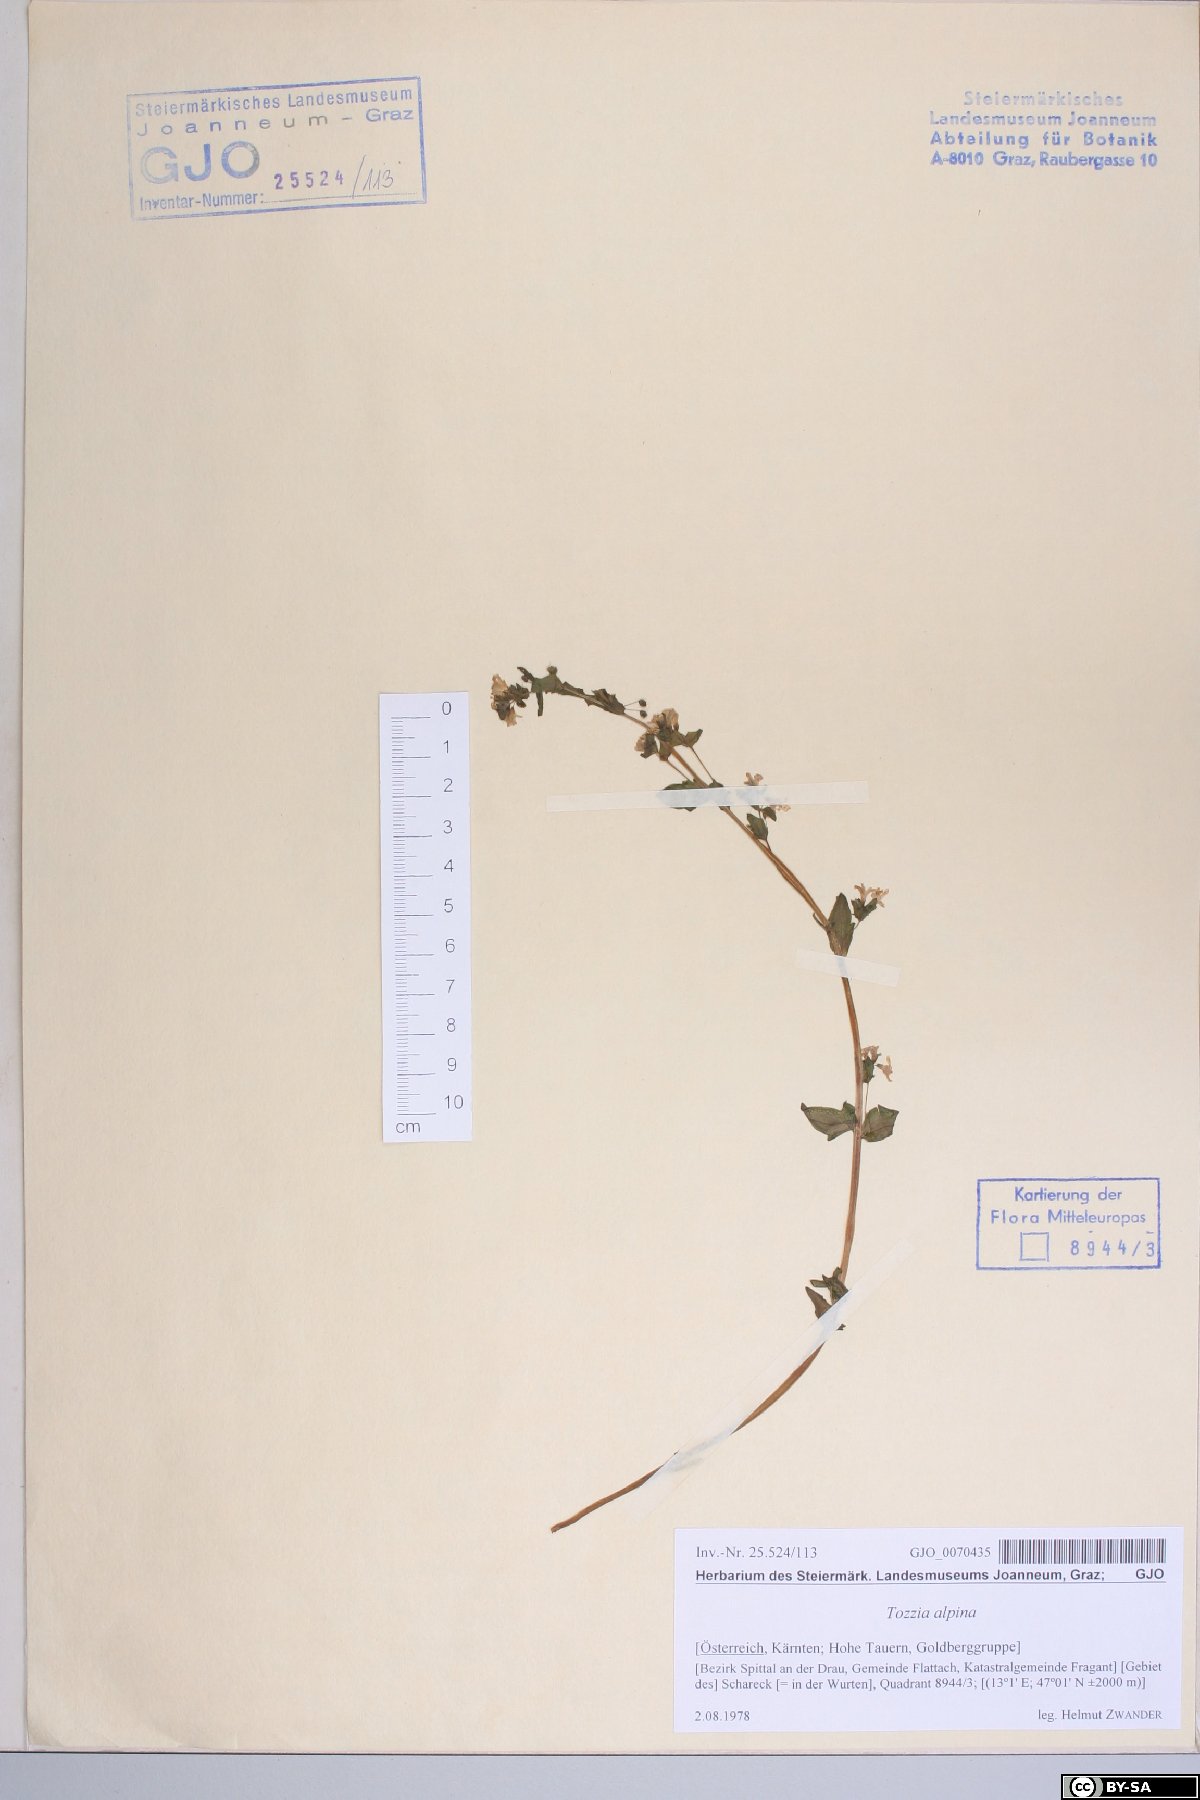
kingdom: Plantae
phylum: Tracheophyta
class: Magnoliopsida
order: Lamiales
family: Orobanchaceae
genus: Tozzia
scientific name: Tozzia alpina
